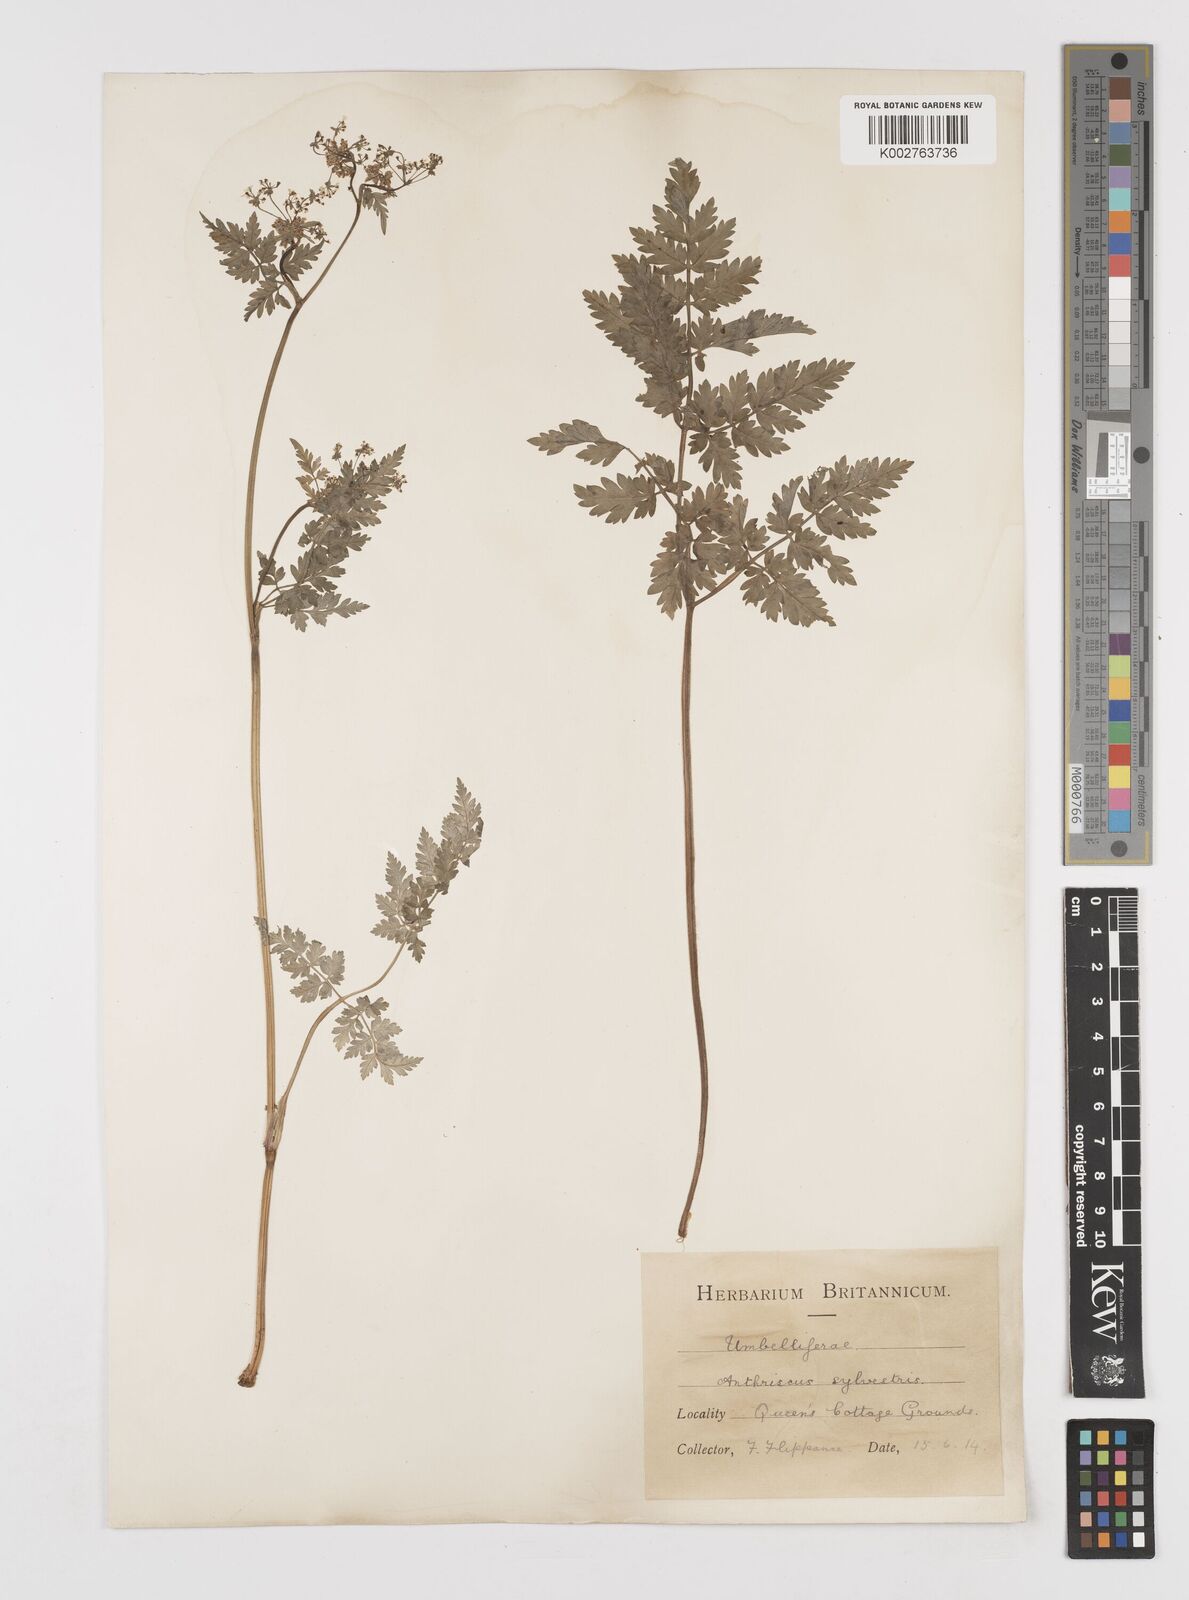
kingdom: Plantae
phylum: Tracheophyta
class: Magnoliopsida
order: Apiales
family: Apiaceae
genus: Anthriscus
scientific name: Anthriscus sylvestris
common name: Cow parsley
